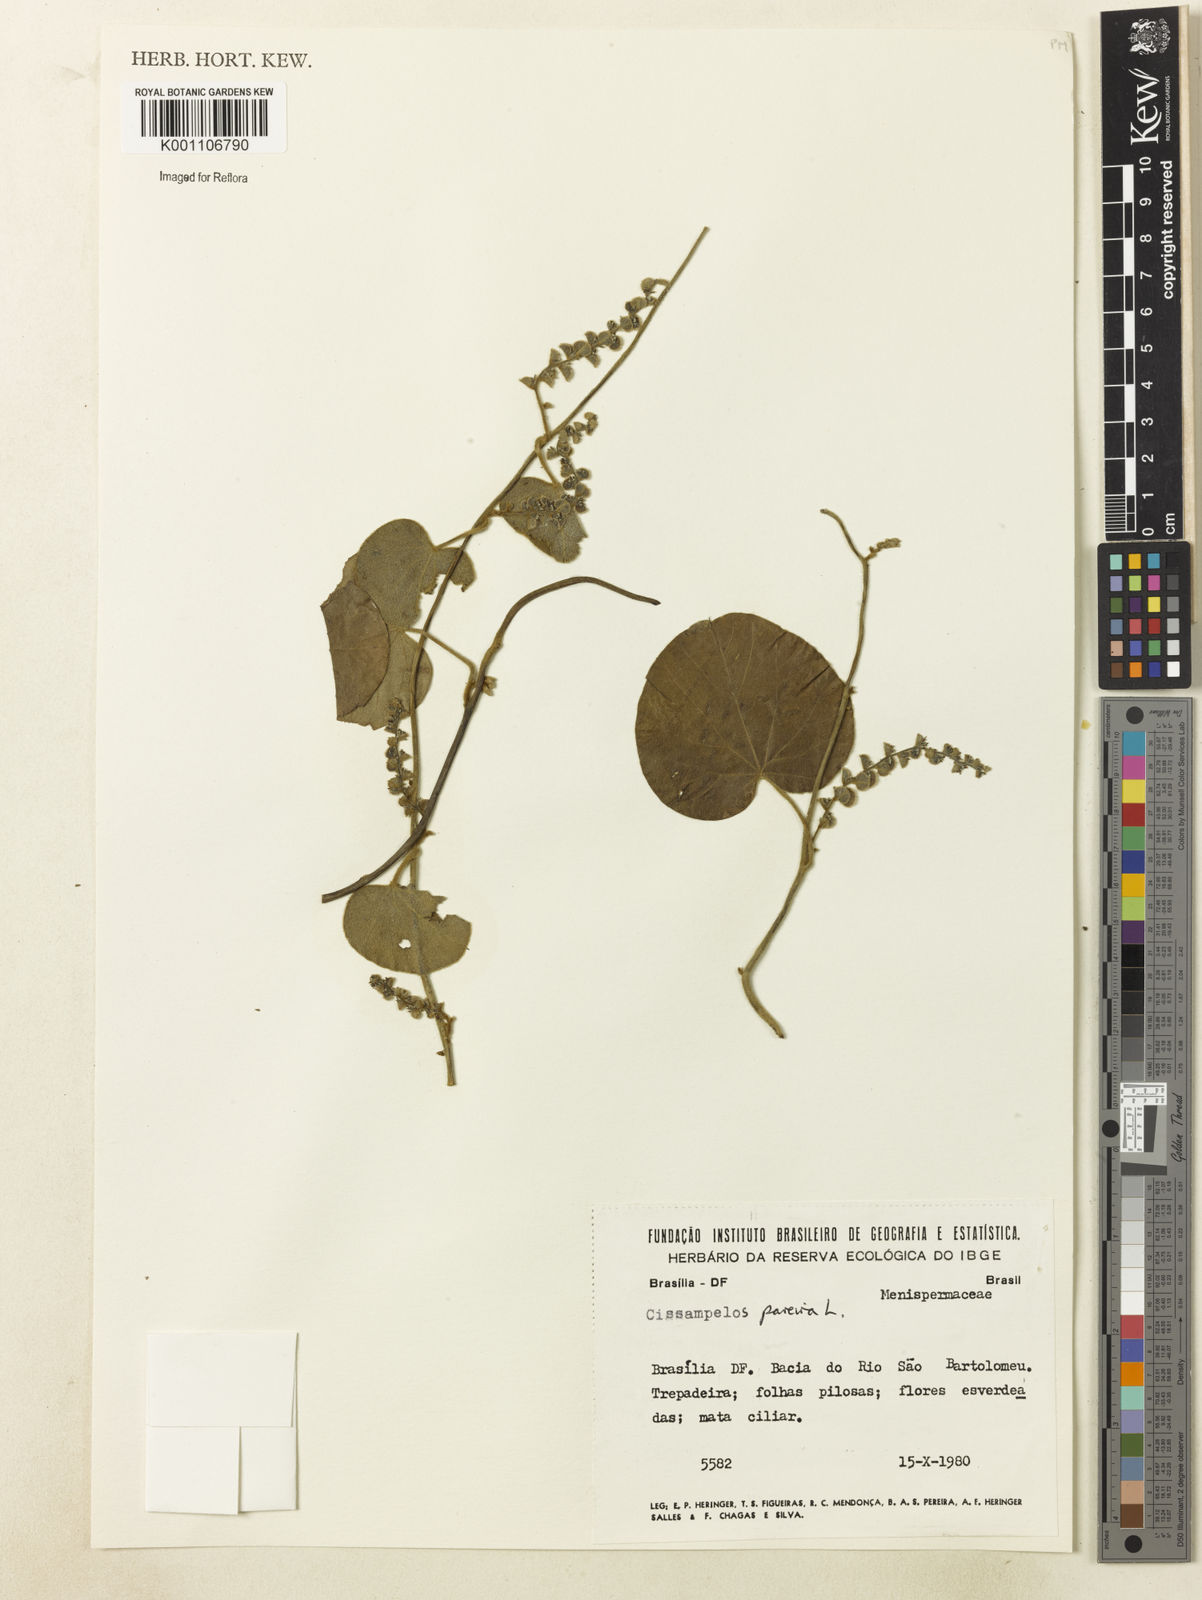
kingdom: Plantae
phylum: Tracheophyta
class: Magnoliopsida
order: Ranunculales
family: Menispermaceae
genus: Cissampelos
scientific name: Cissampelos pareira
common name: Velvetleaf
